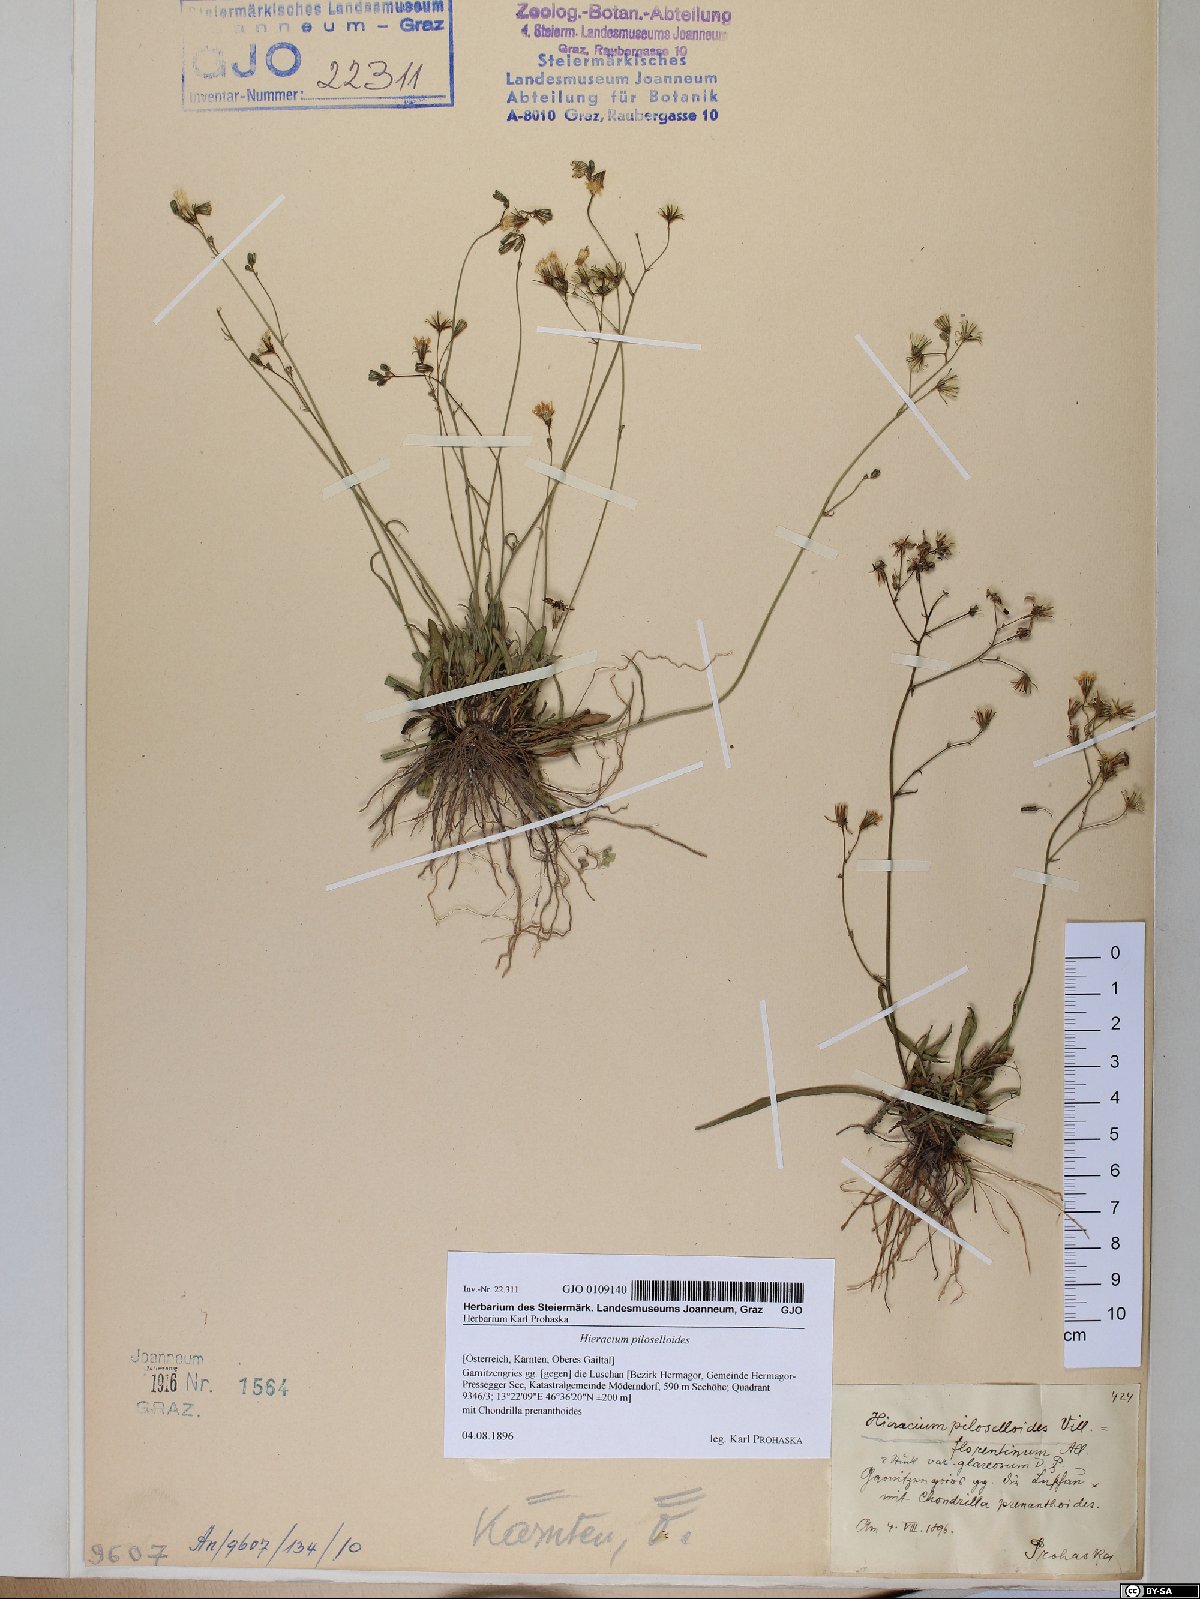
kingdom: Plantae
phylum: Tracheophyta
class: Magnoliopsida
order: Asterales
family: Asteraceae
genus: Pilosella
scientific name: Pilosella piloselloides
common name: Glaucous king-devil
